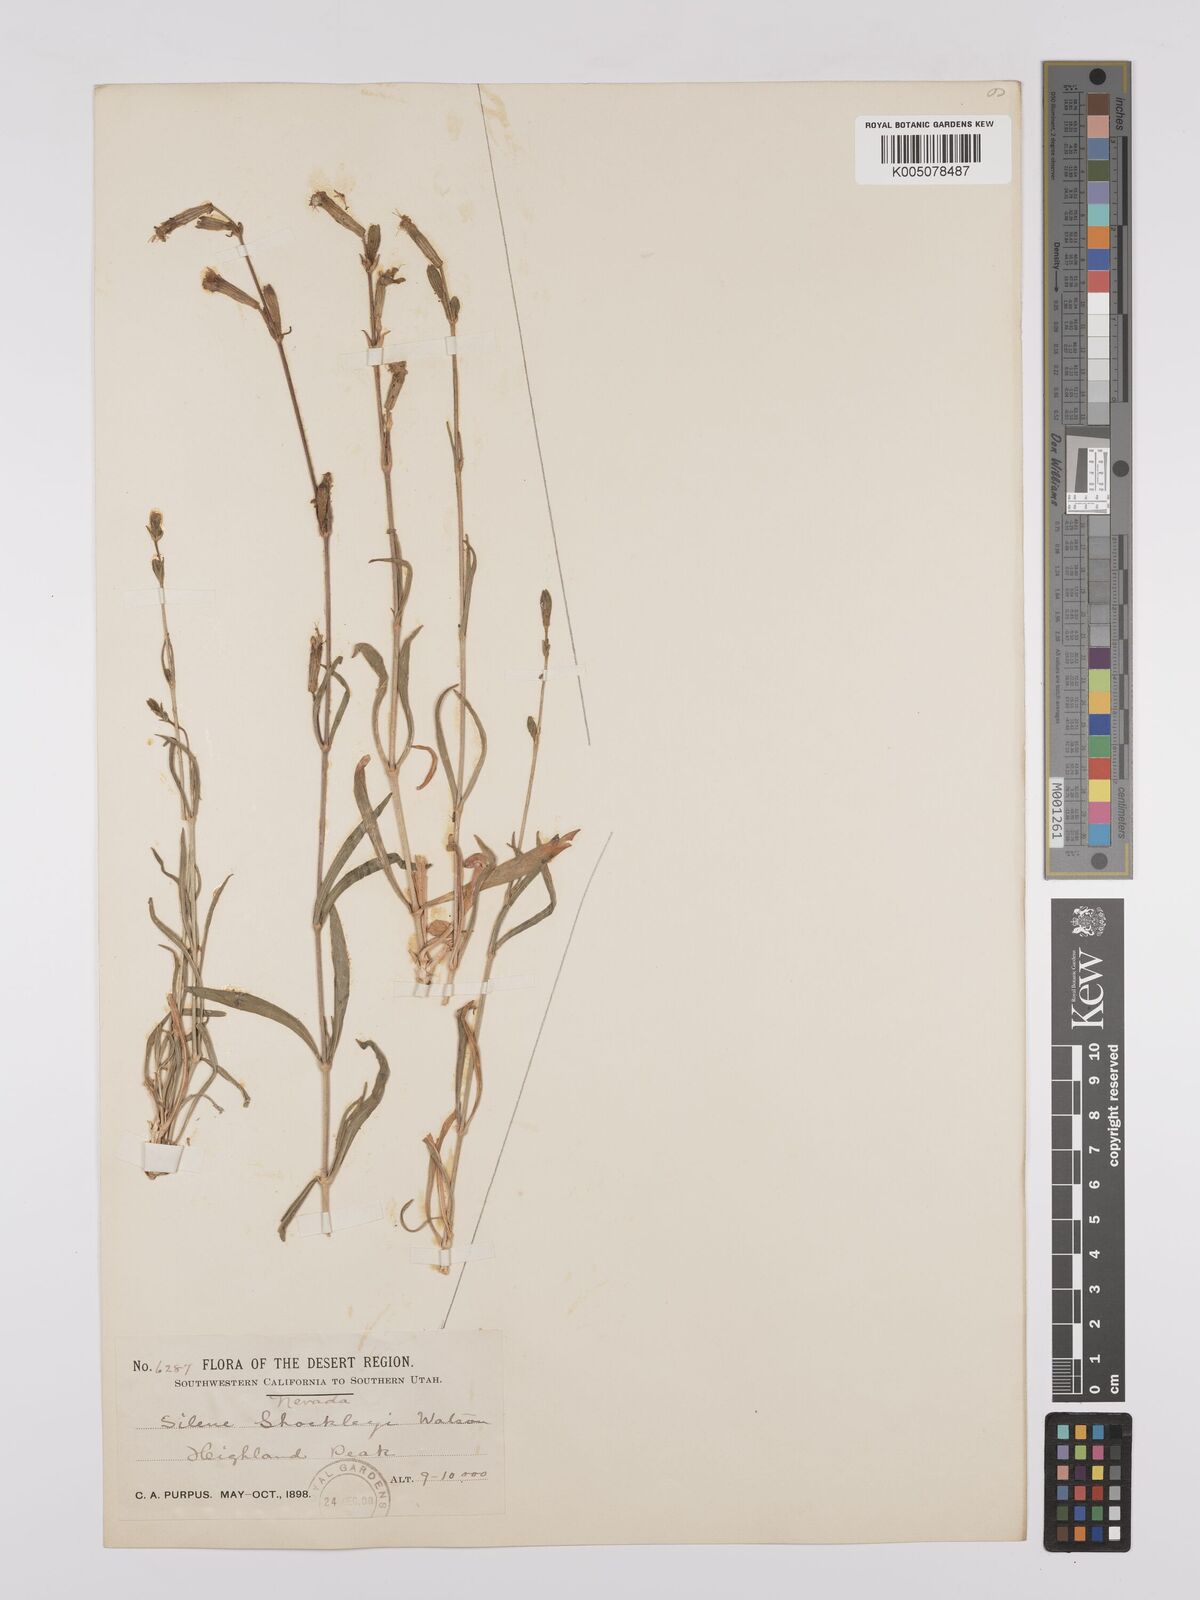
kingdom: Plantae
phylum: Tracheophyta
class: Magnoliopsida
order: Caryophyllales
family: Caryophyllaceae
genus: Silene
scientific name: Silene bernardina
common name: Palmer's catchfly
